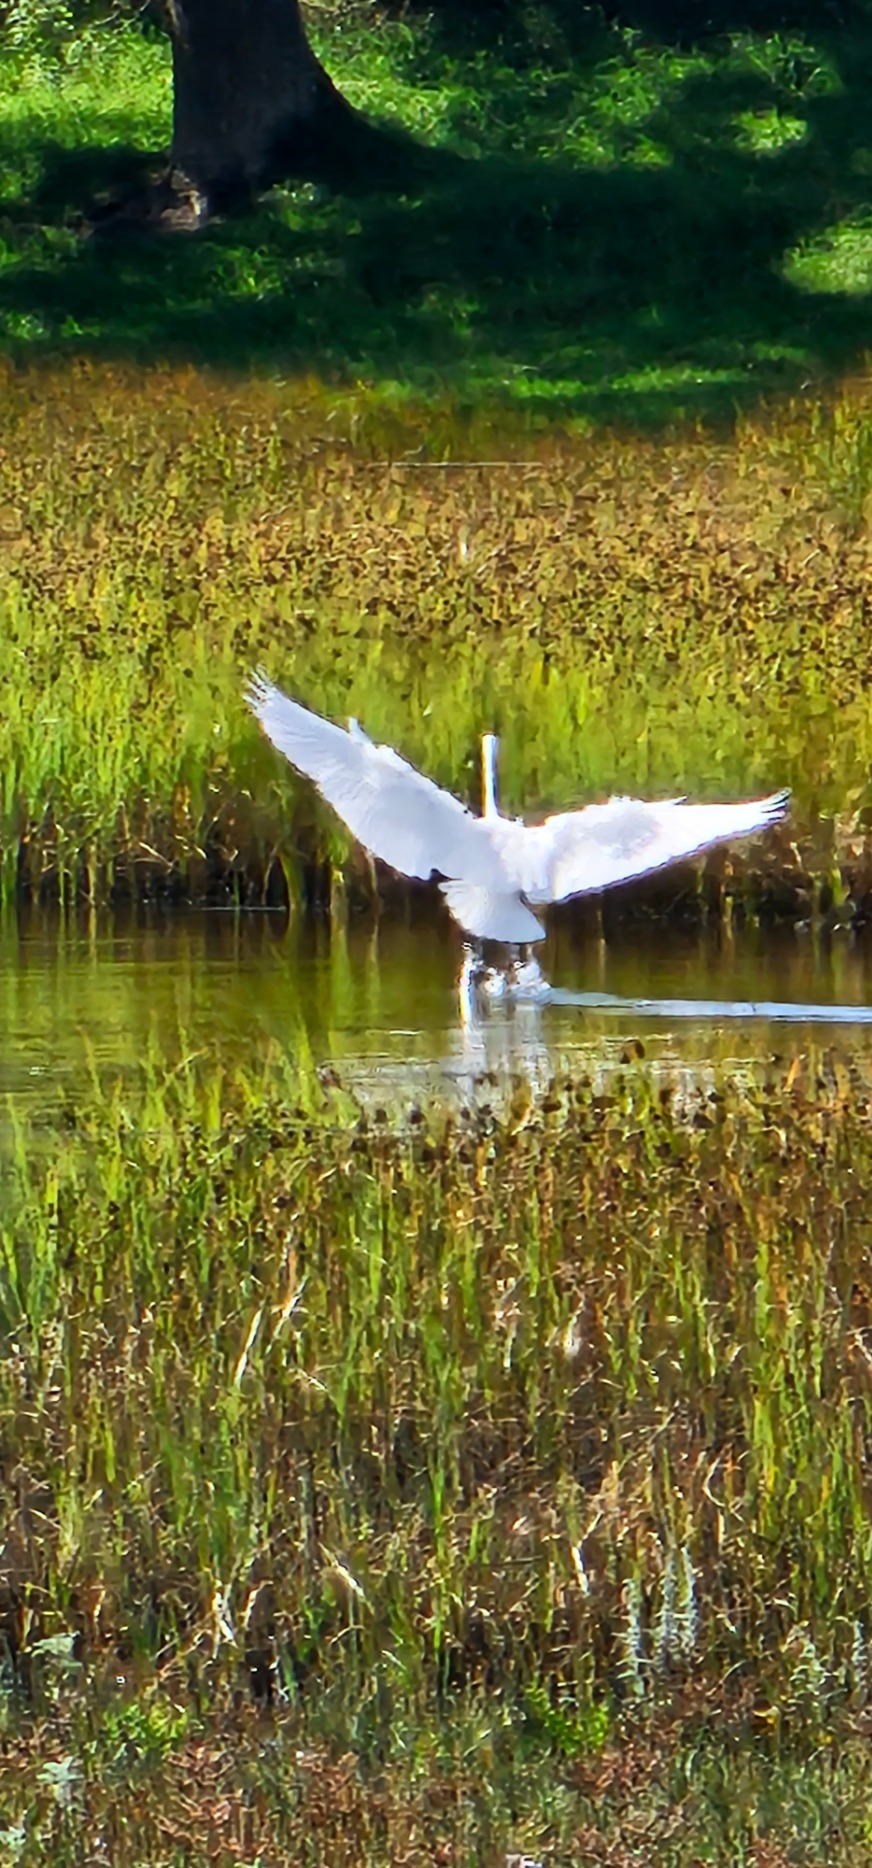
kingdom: Animalia
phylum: Chordata
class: Aves
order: Pelecaniformes
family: Ardeidae
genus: Ardea
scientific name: Ardea alba
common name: Sølvhejre
